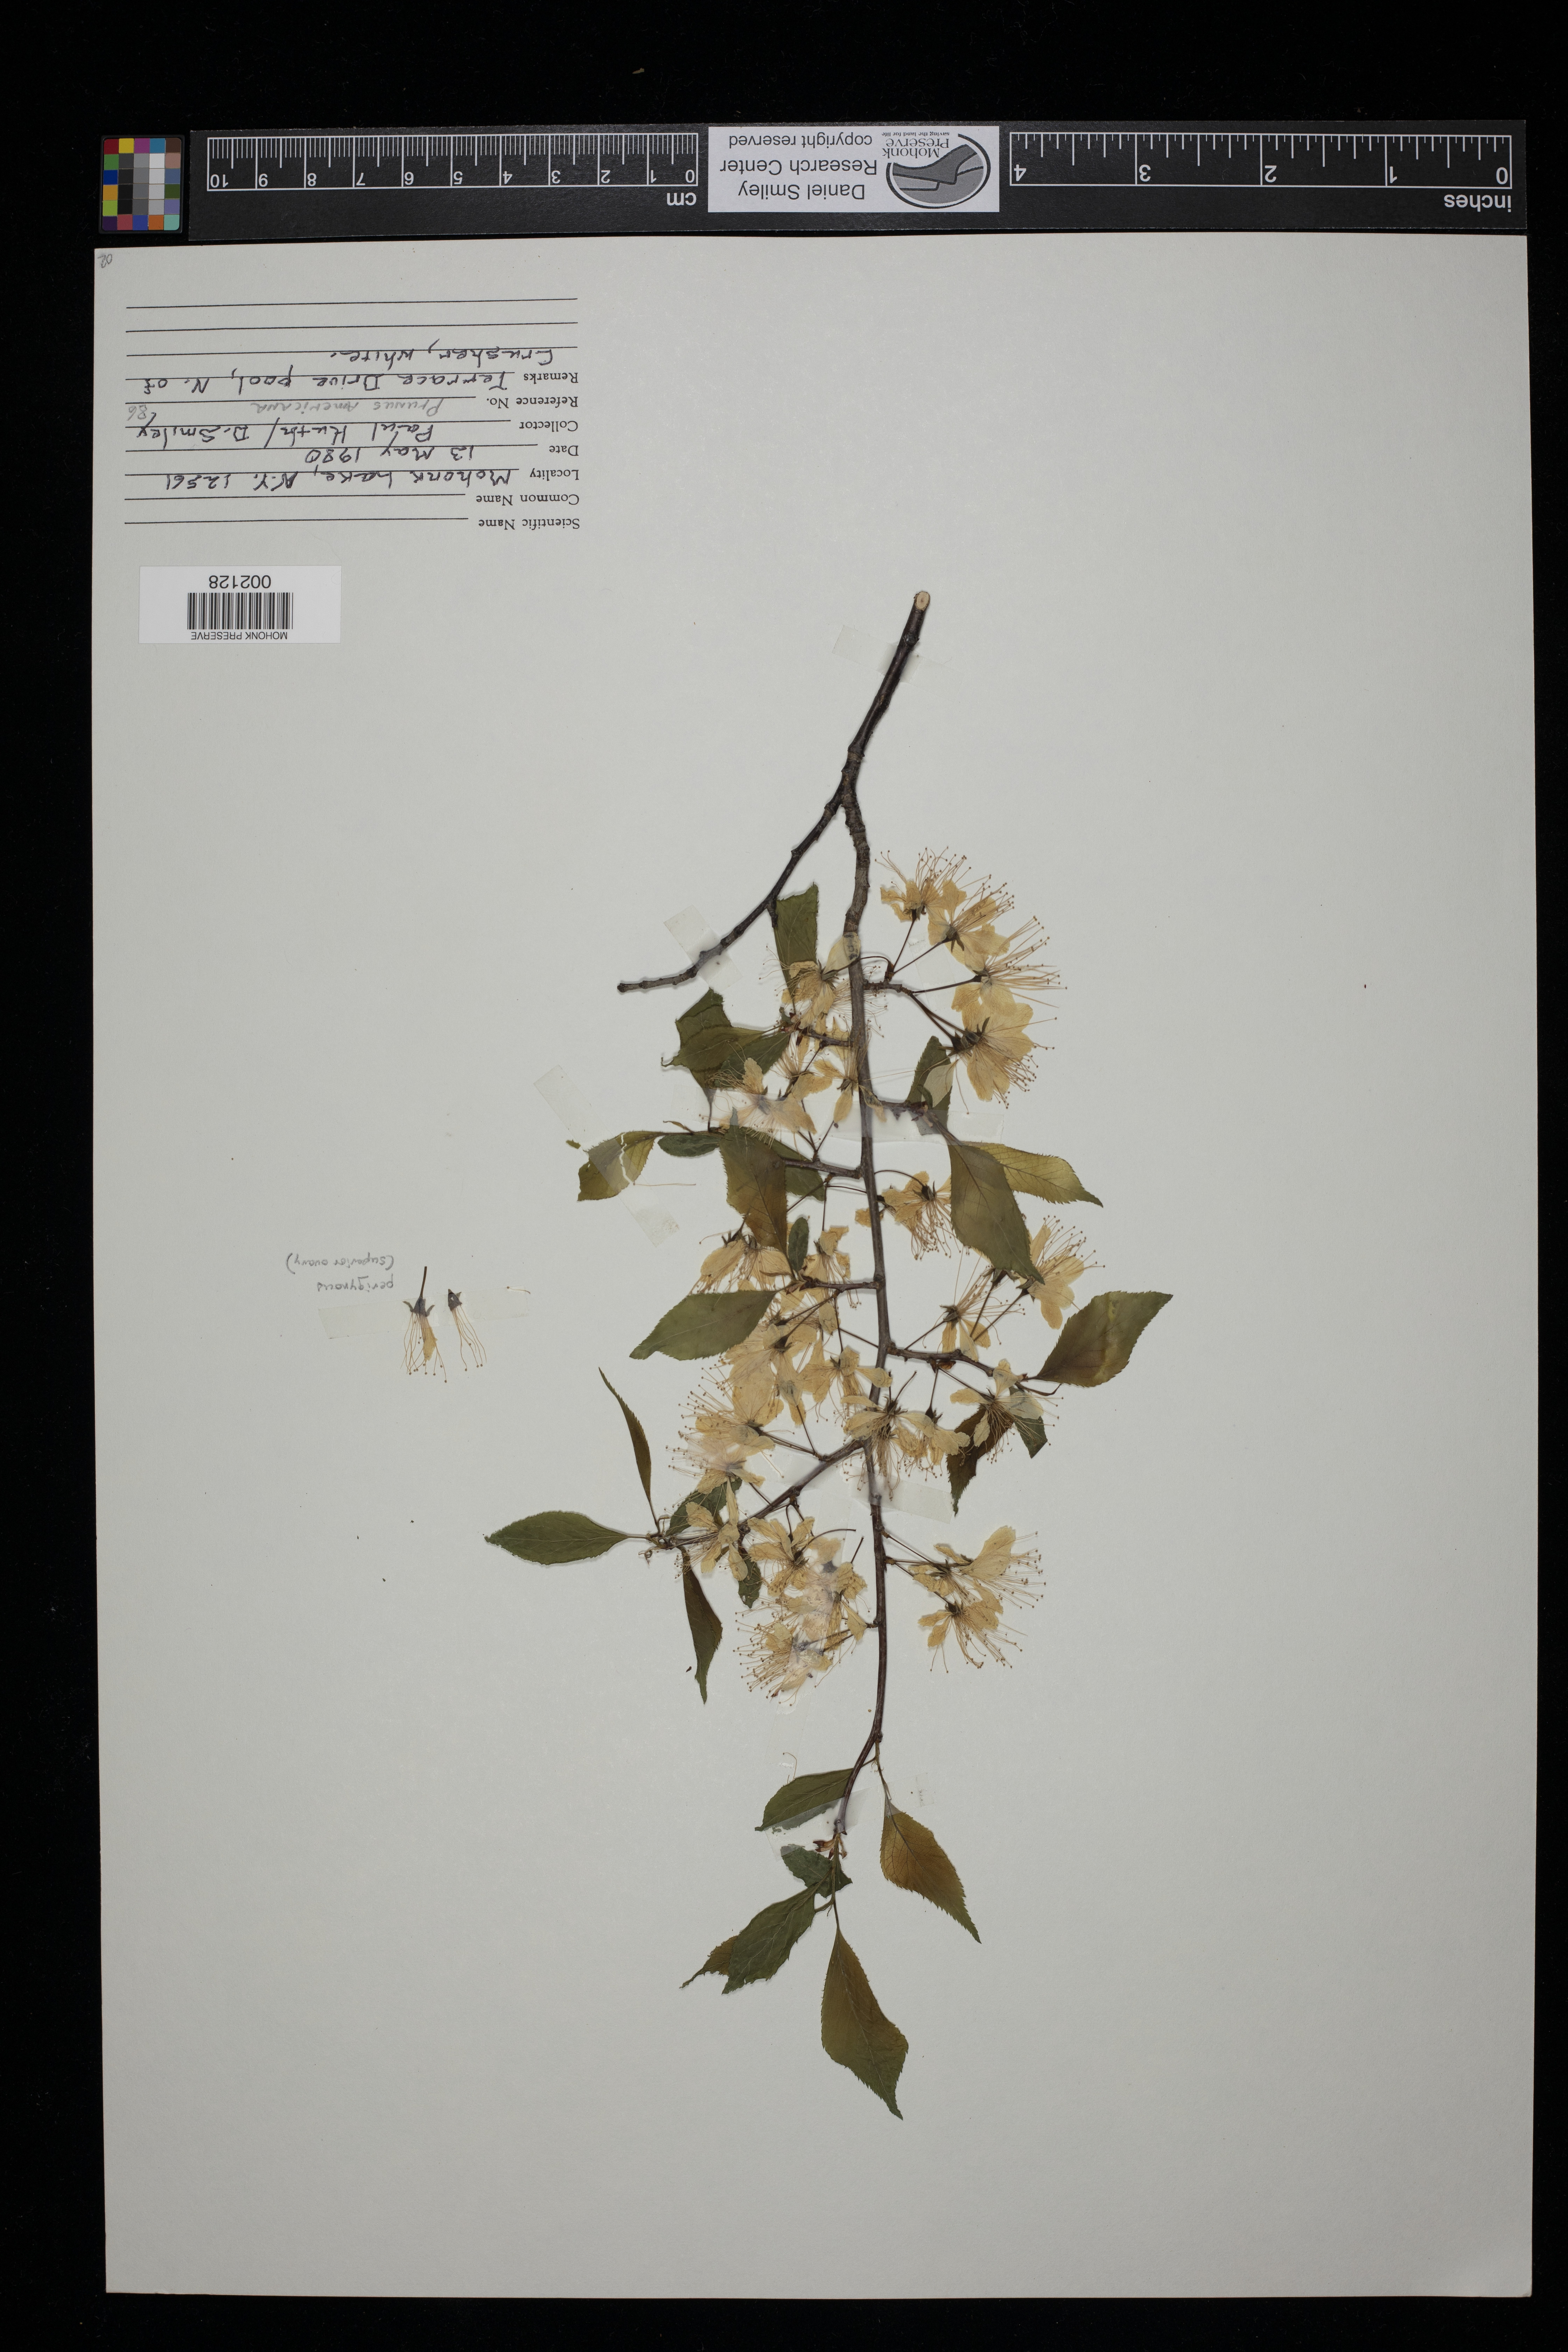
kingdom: Plantae
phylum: Tracheophyta
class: Magnoliopsida
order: Rosales
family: Rosaceae
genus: Prunus
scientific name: Prunus americana
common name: American plum
